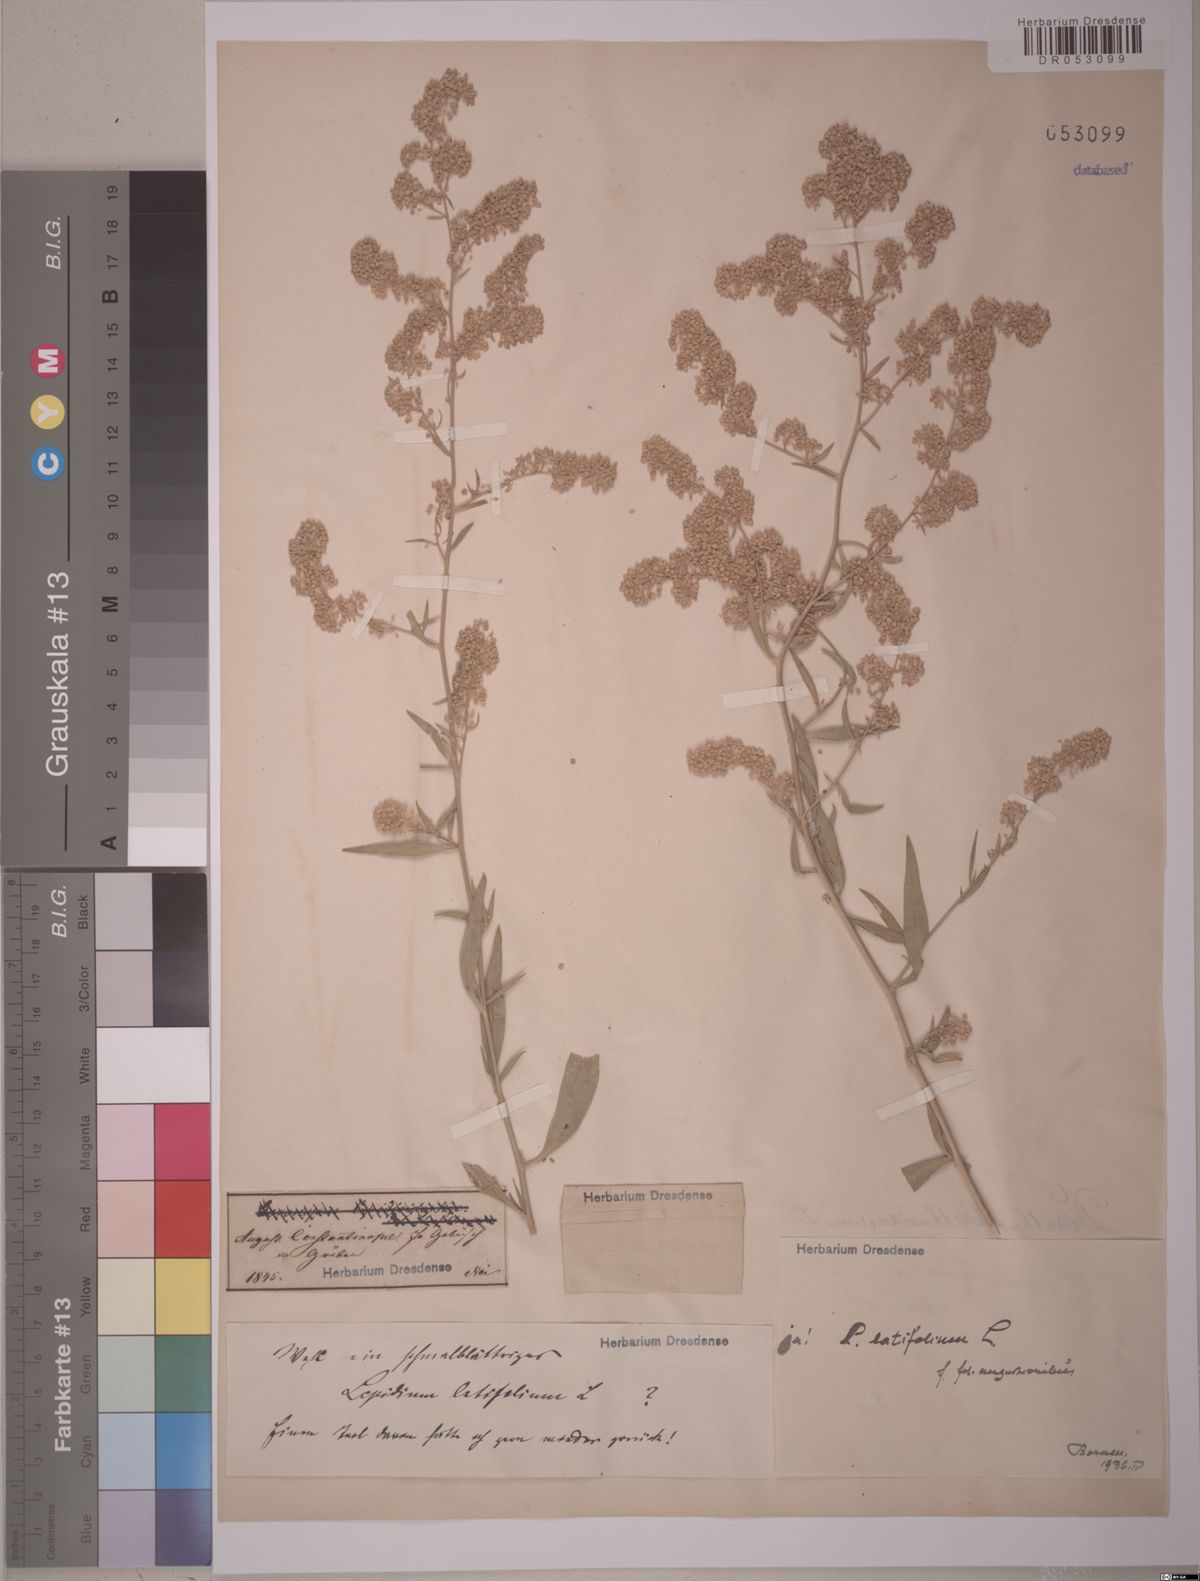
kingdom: Plantae
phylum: Tracheophyta
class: Magnoliopsida
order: Brassicales
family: Brassicaceae
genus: Lepidium
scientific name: Lepidium latifolium
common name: Dittander
